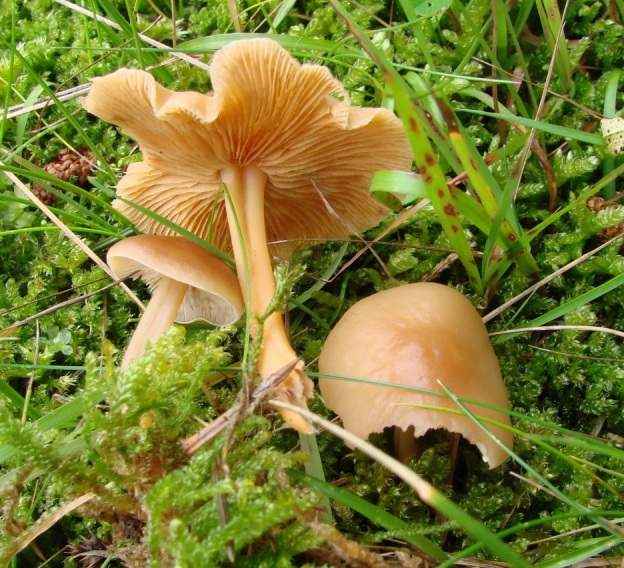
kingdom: Fungi
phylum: Basidiomycota
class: Agaricomycetes
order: Agaricales
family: Omphalotaceae
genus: Gymnopus
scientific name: Gymnopus dryophilus
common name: løv-fladhat
